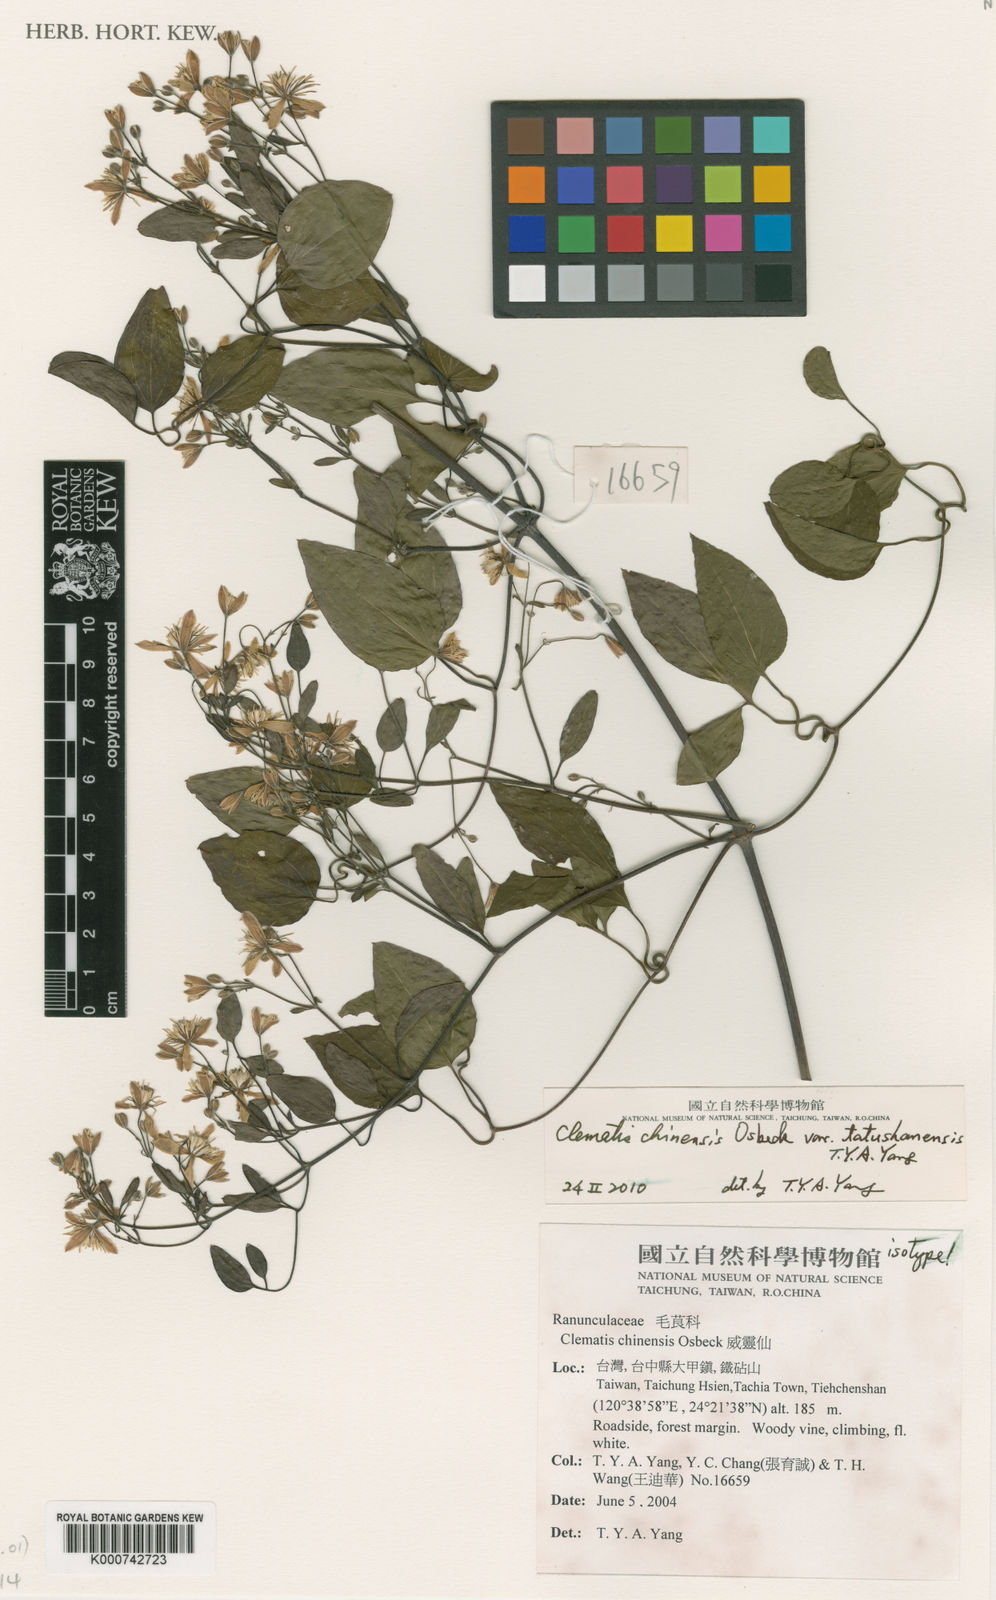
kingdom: Plantae
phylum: Tracheophyta
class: Magnoliopsida
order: Ranunculales
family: Ranunculaceae
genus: Clematis
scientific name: Clematis chinensis
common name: Chinese clematis
